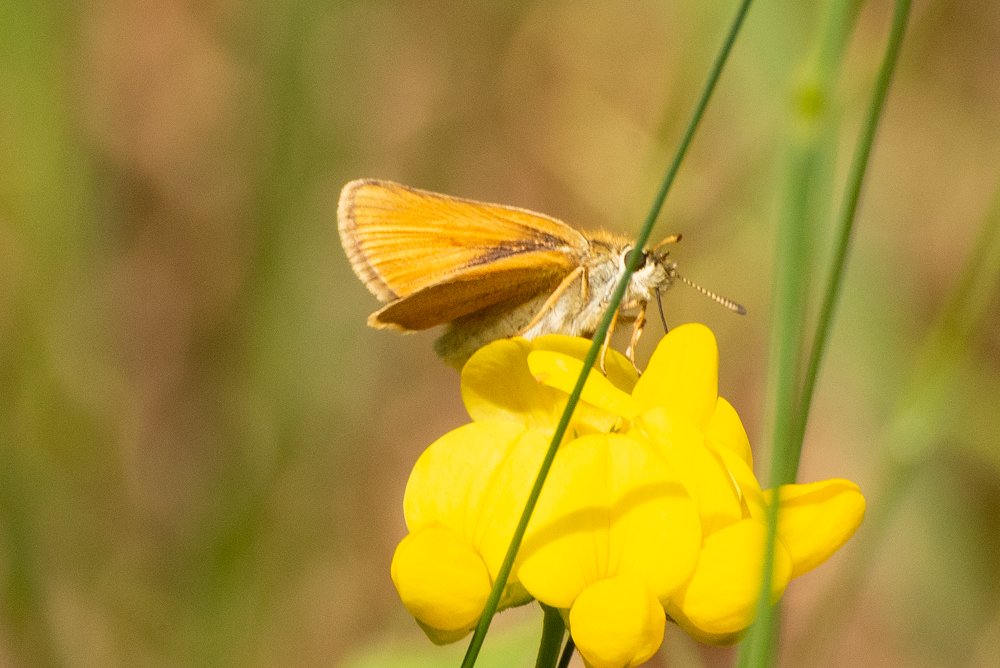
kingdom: Animalia
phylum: Arthropoda
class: Insecta
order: Lepidoptera
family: Hesperiidae
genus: Thymelicus
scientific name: Thymelicus lineola
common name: European Skipper
